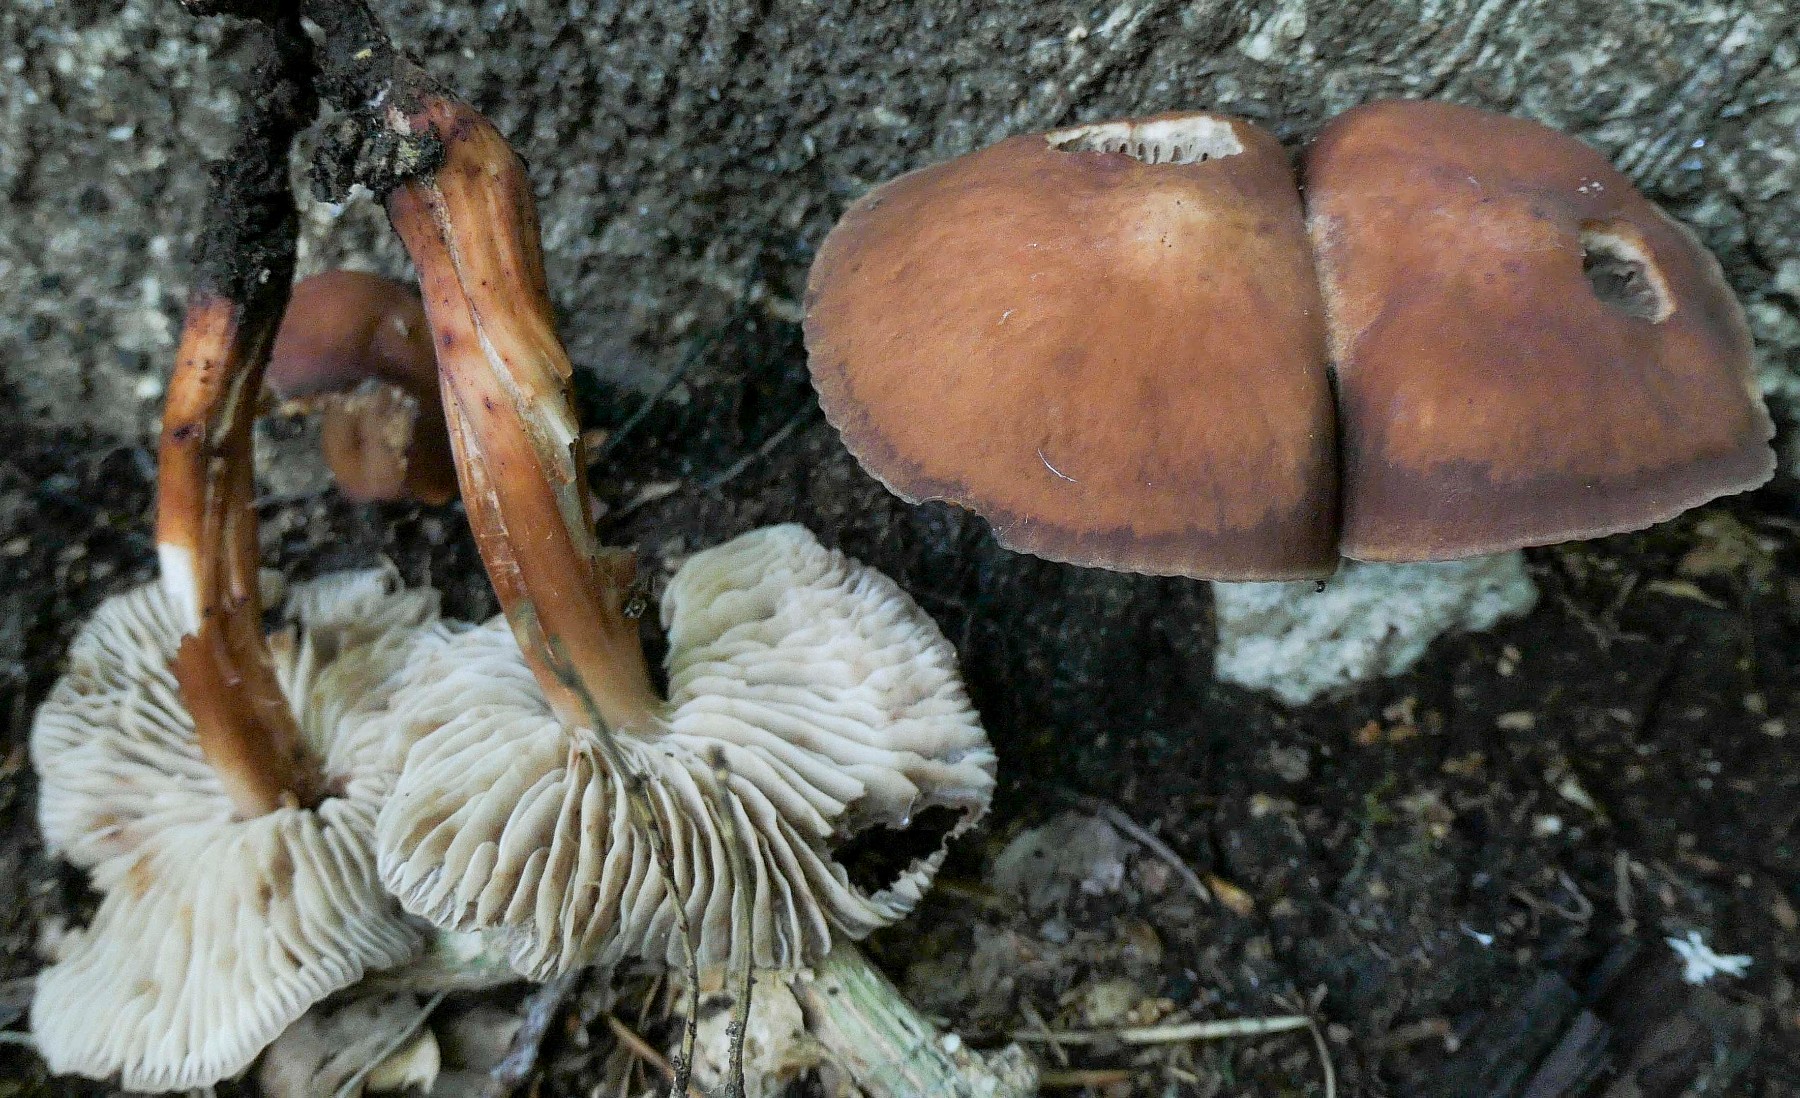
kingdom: Fungi
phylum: Basidiomycota
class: Agaricomycetes
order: Agaricales
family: Omphalotaceae
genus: Gymnopus
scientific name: Gymnopus fusipes
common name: tenstokket fladhat
